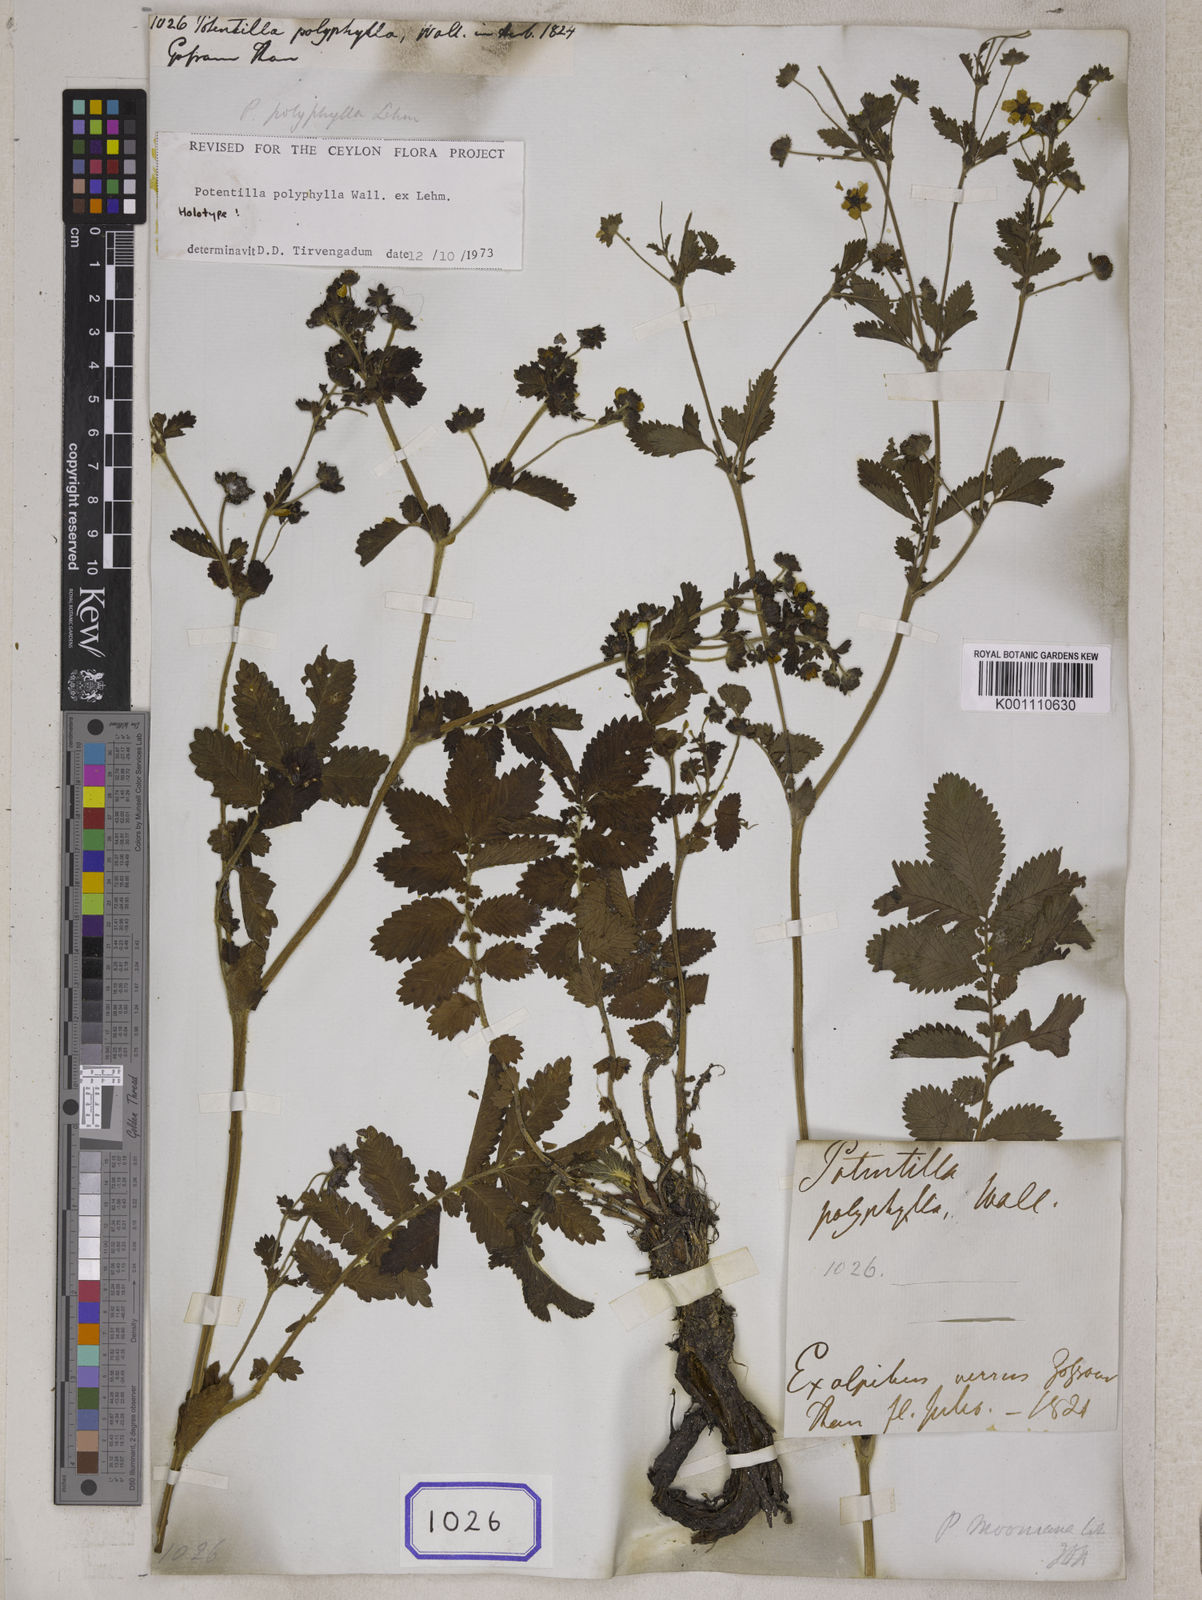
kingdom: Plantae
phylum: Tracheophyta
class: Magnoliopsida
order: Rosales
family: Rosaceae
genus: Potentilla
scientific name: Potentilla
